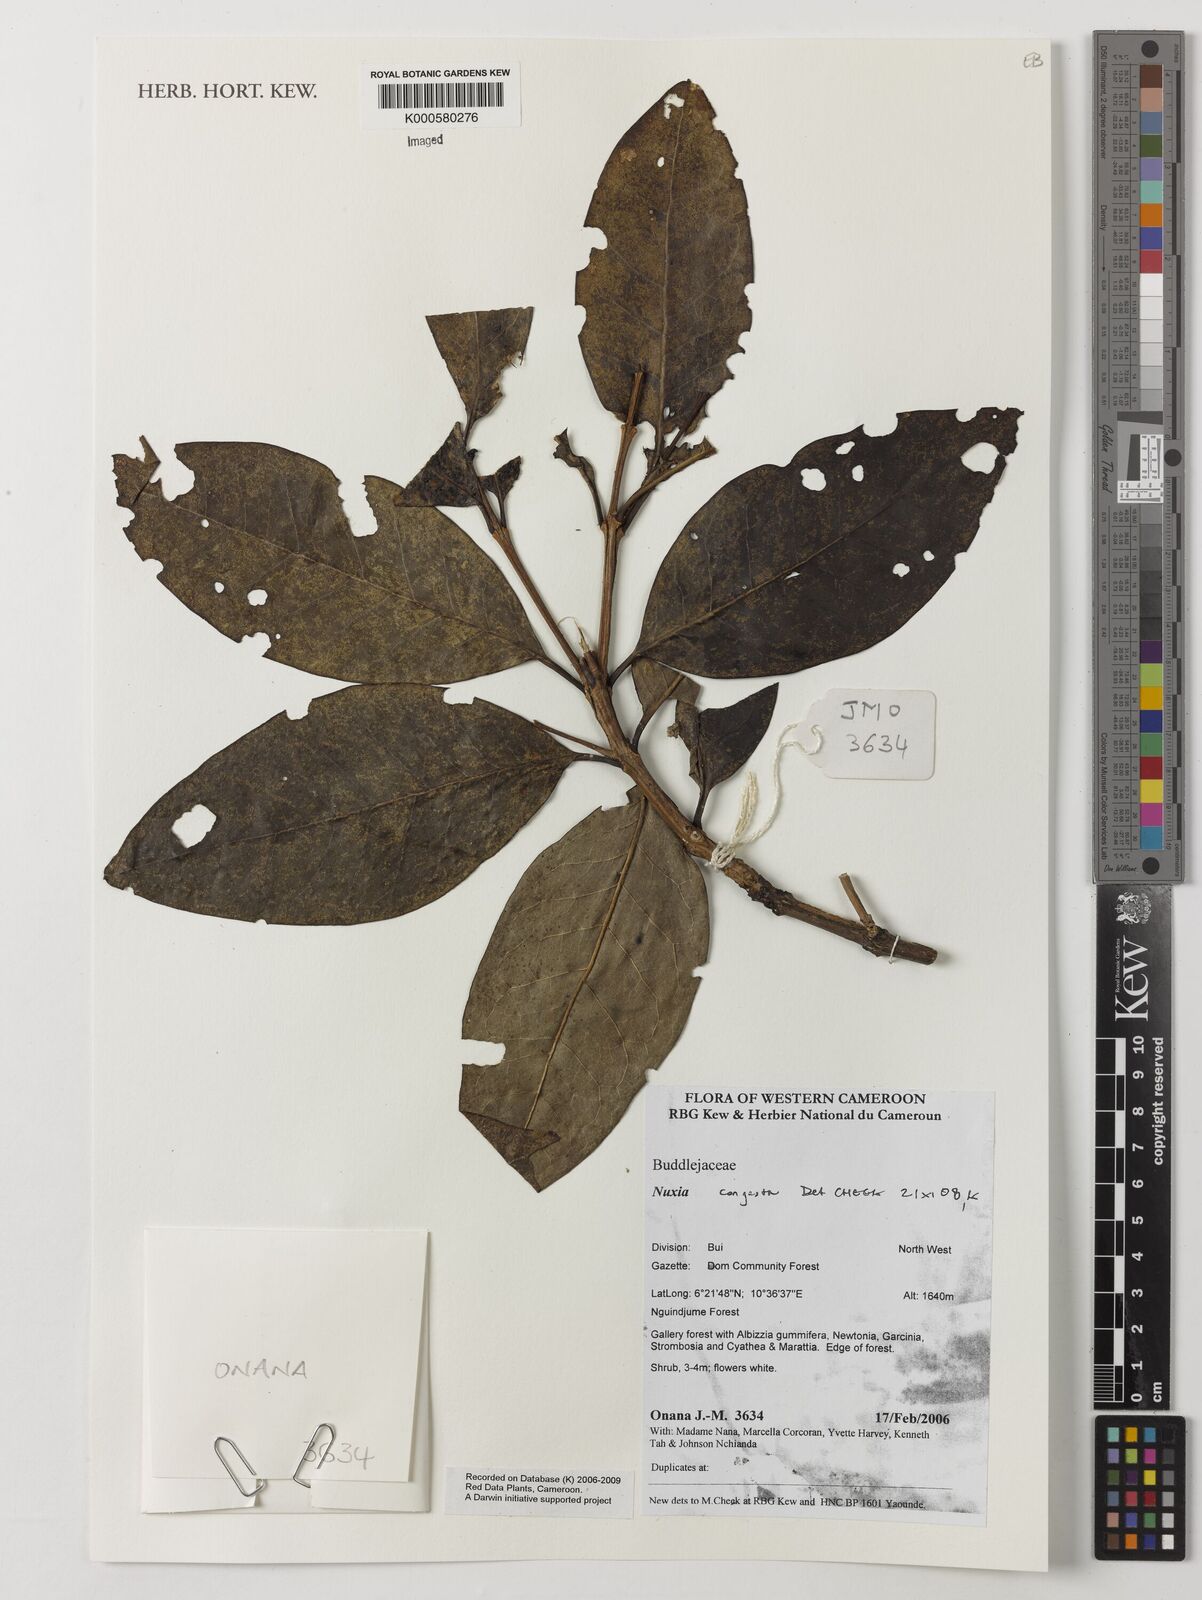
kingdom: Plantae
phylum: Tracheophyta
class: Magnoliopsida
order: Lamiales
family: Stilbaceae
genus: Nuxia
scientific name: Nuxia congesta
